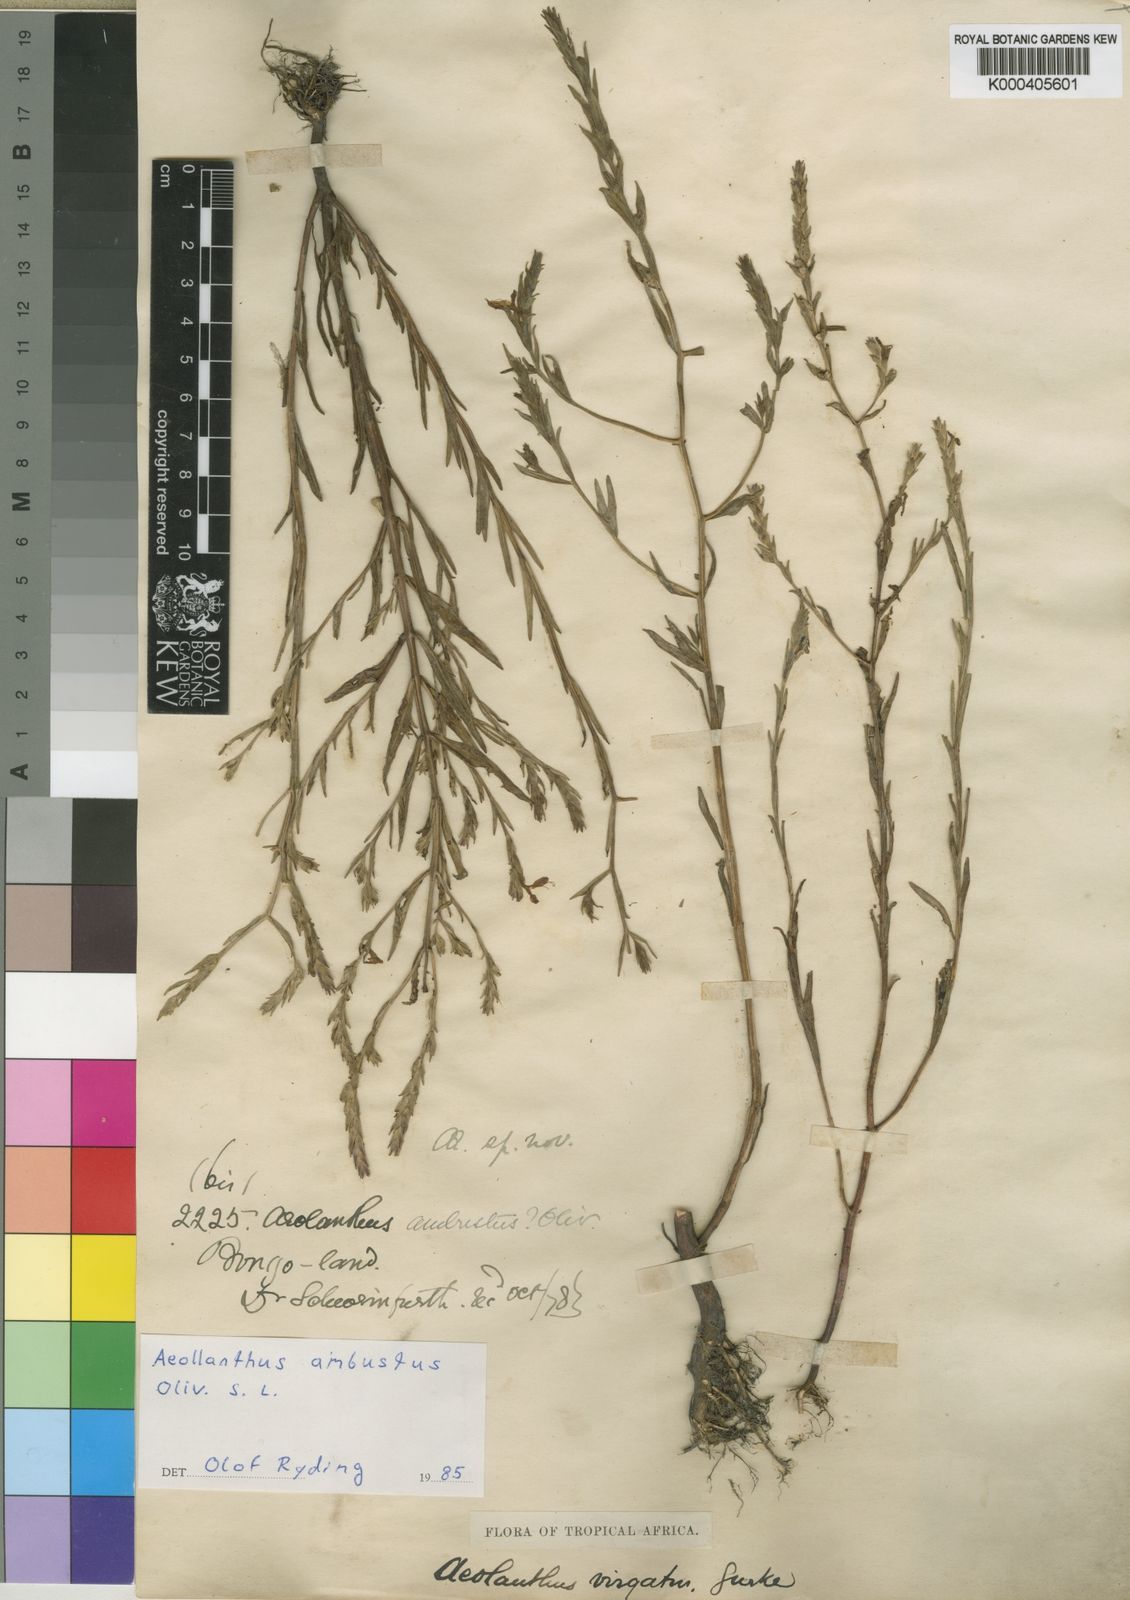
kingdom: Plantae
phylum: Tracheophyta
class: Magnoliopsida
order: Lamiales
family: Lamiaceae
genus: Aeollanthus
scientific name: Aeollanthus ambustus
